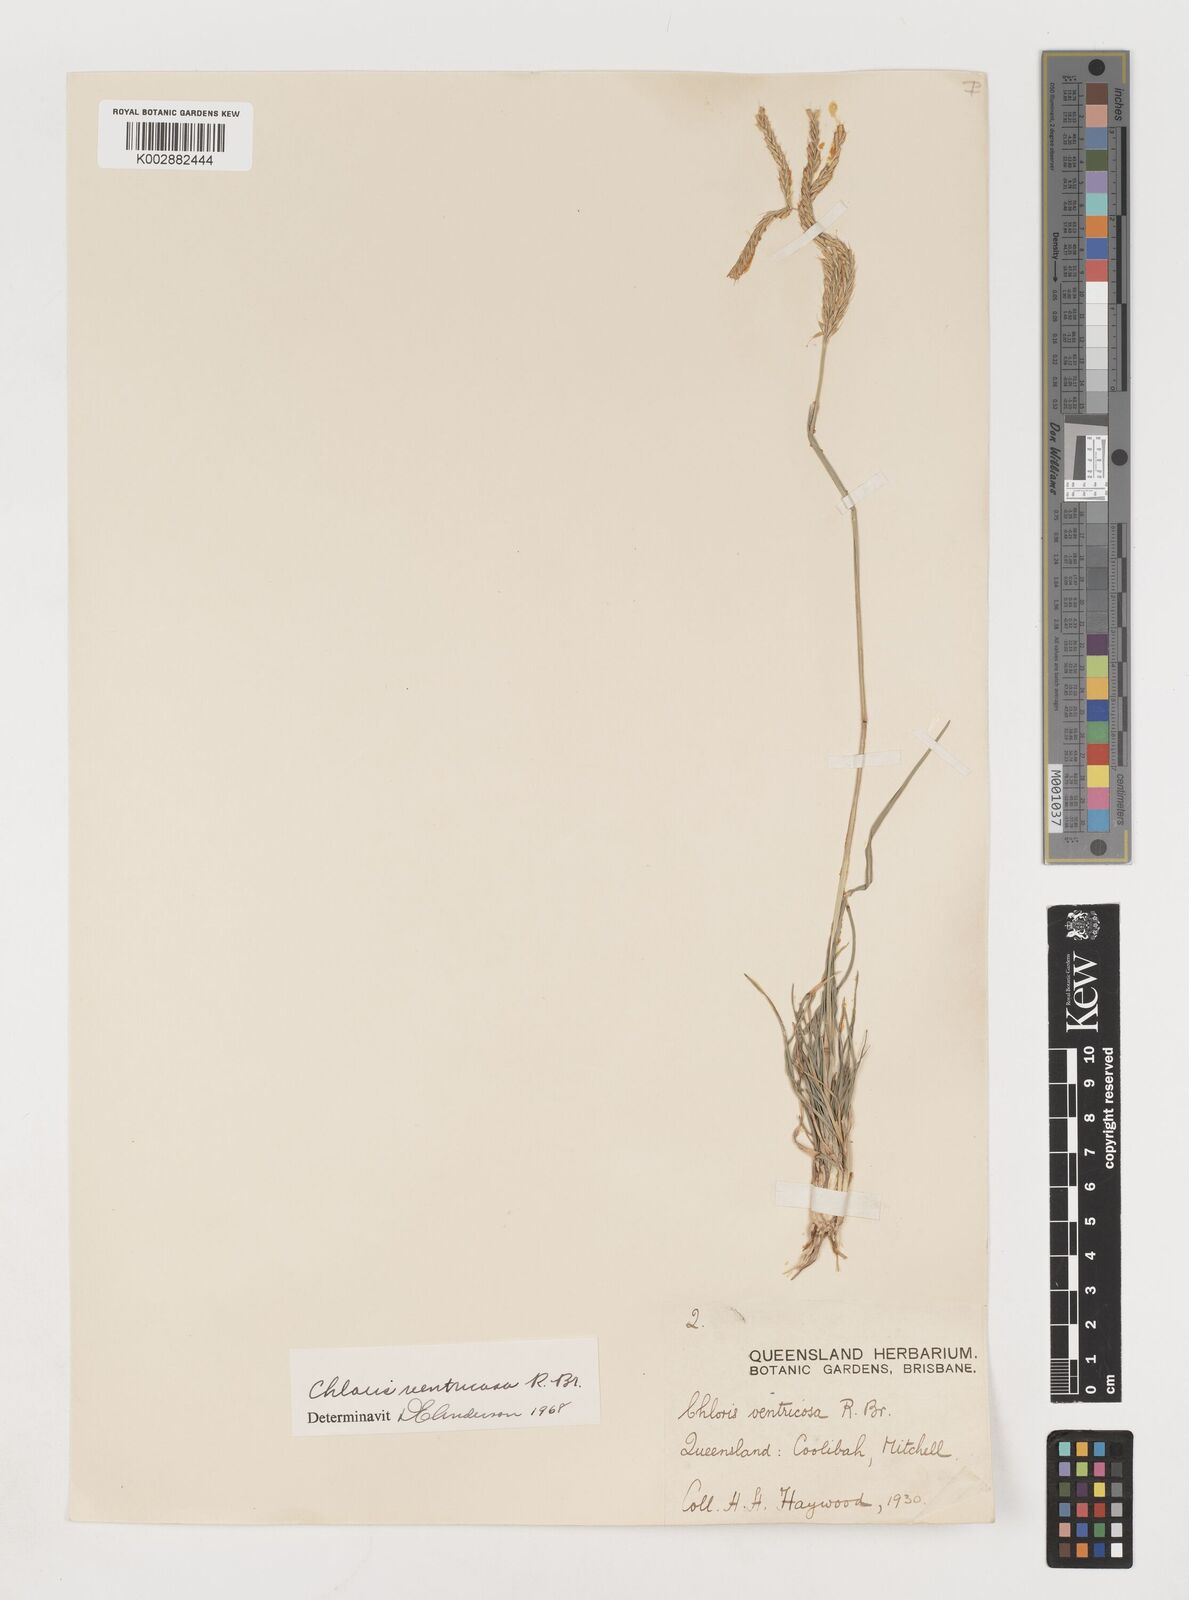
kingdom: Plantae
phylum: Tracheophyta
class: Liliopsida
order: Poales
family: Poaceae
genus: Chloris
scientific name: Chloris ventricosa
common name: Australian windmill grass
